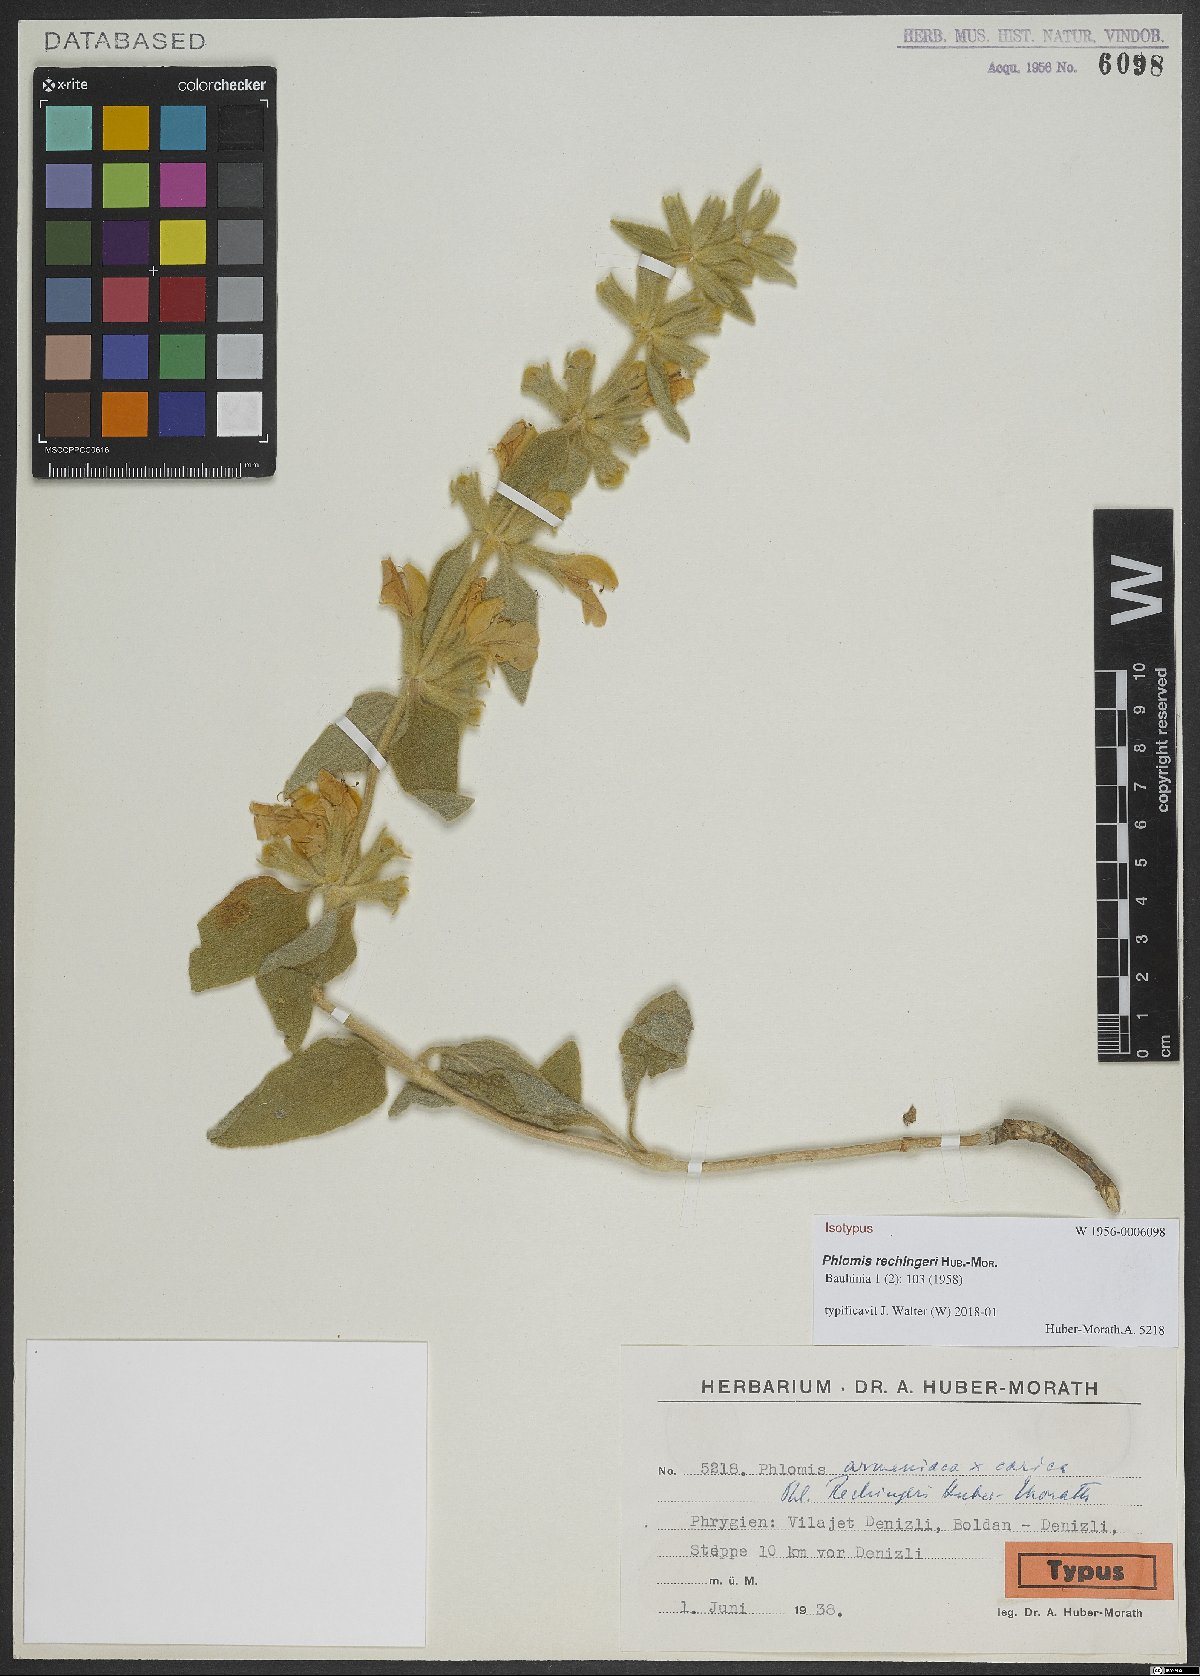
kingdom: Plantae
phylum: Tracheophyta
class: Magnoliopsida
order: Lamiales
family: Lamiaceae
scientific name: Lamiaceae
